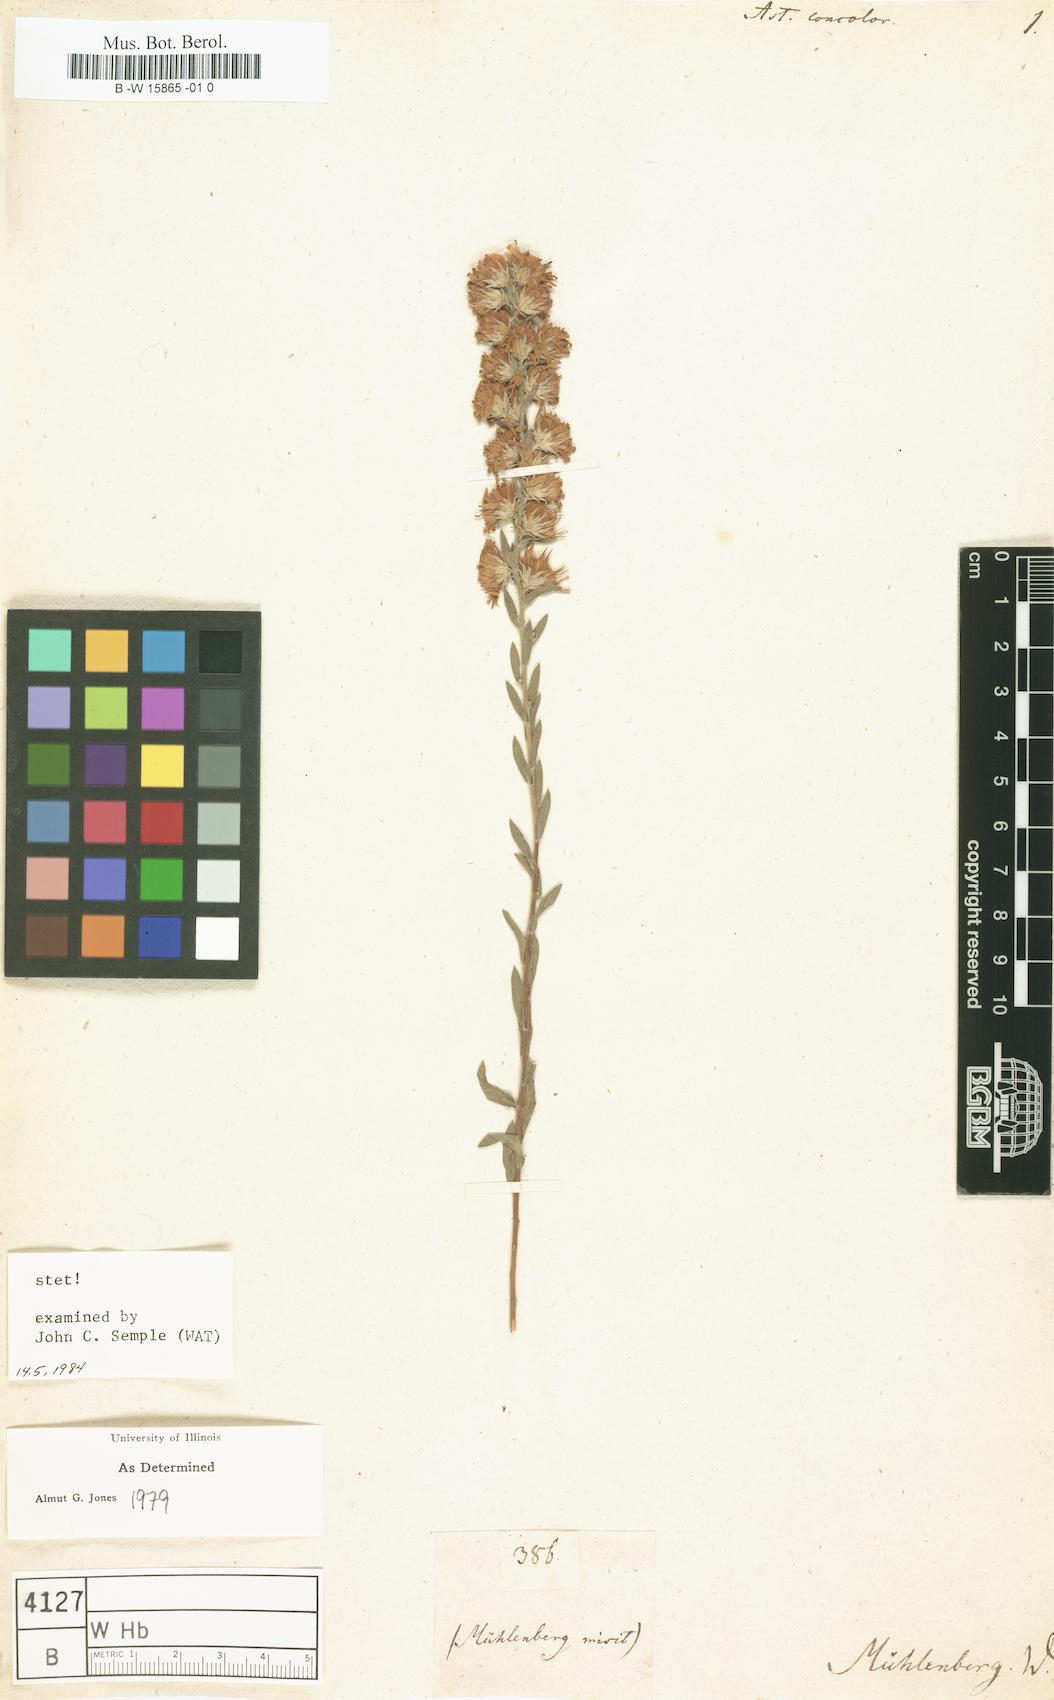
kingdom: Plantae
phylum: Tracheophyta
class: Magnoliopsida
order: Asterales
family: Asteraceae
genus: Symphyotrichum
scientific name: Symphyotrichum concolor
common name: Eastern silver aster
